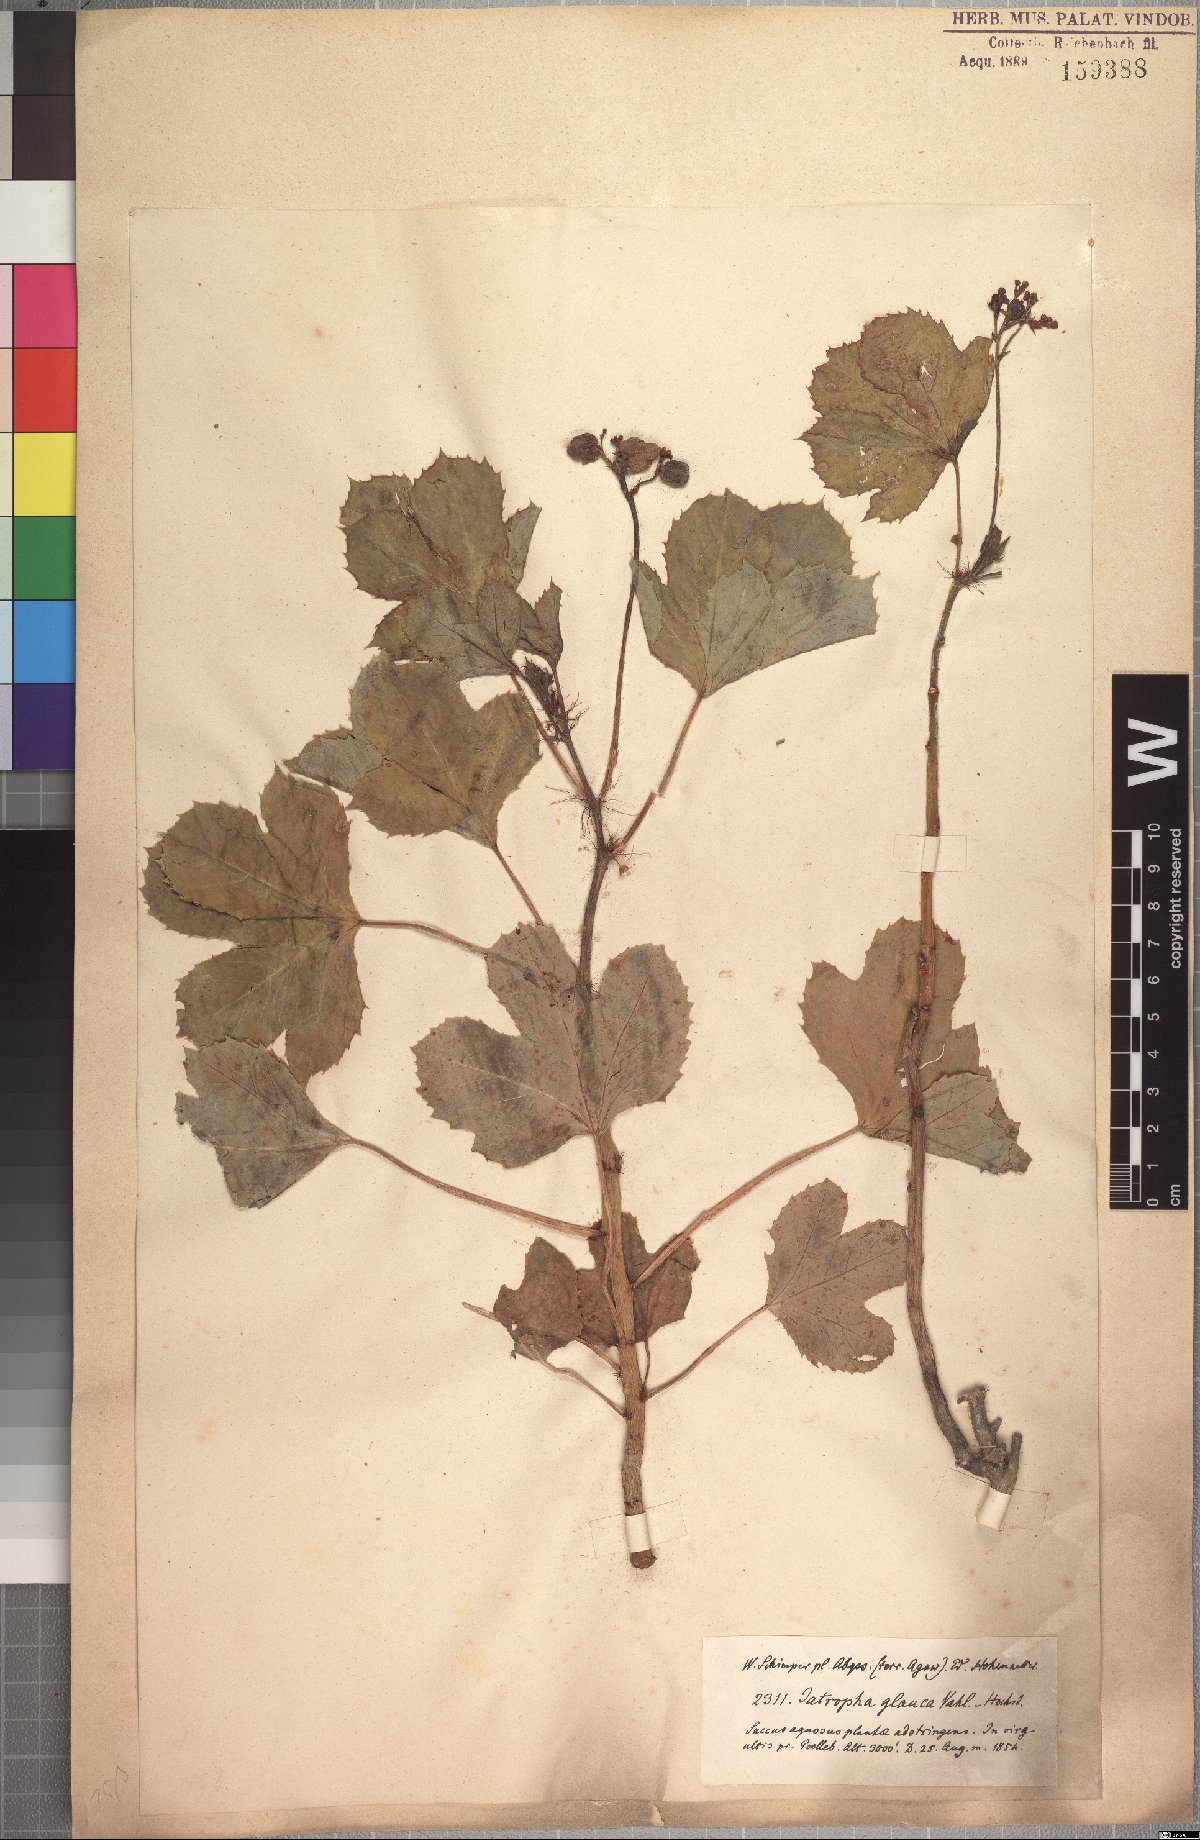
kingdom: Plantae
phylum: Tracheophyta
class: Magnoliopsida
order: Malpighiales
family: Euphorbiaceae
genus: Jatropha
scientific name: Jatropha glauca
